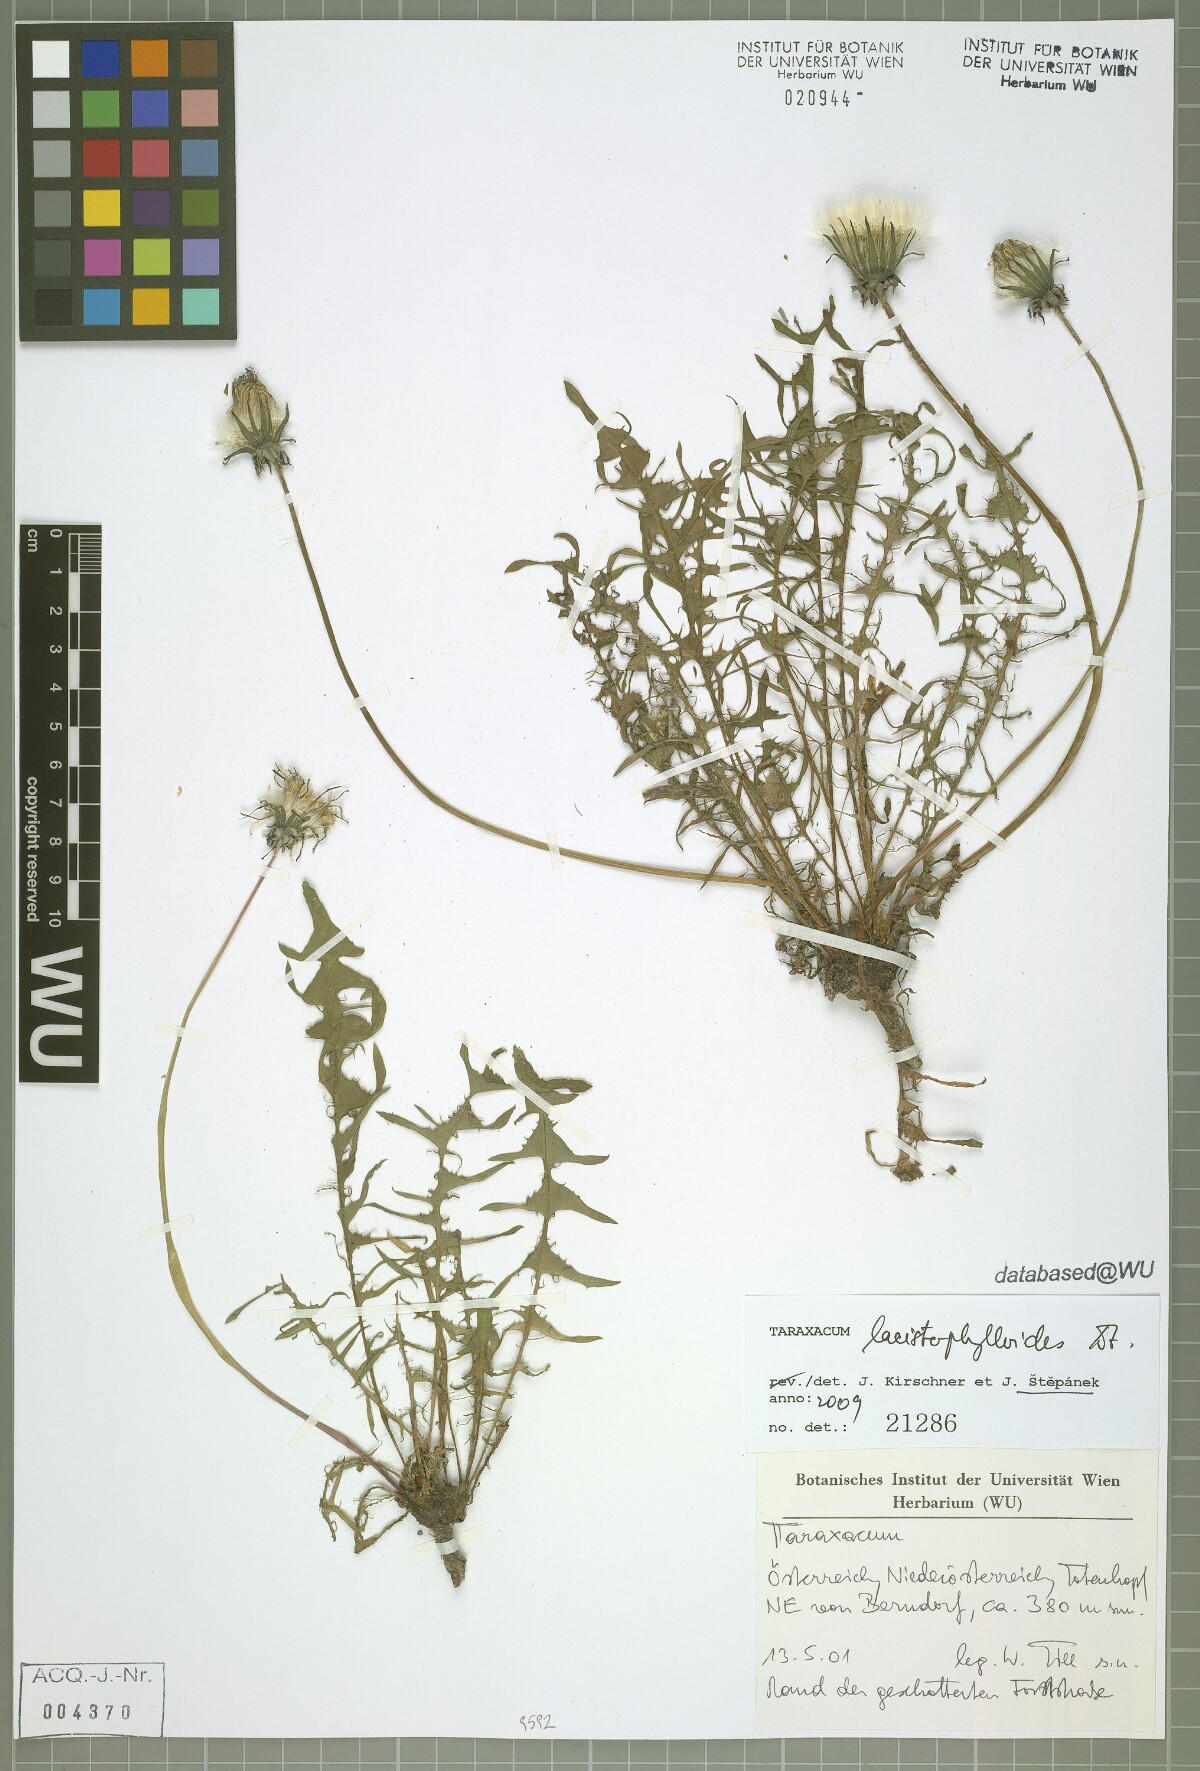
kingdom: Plantae
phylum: Tracheophyta
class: Magnoliopsida
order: Asterales
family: Asteraceae
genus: Taraxacum
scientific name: Taraxacum lacistophylloides
